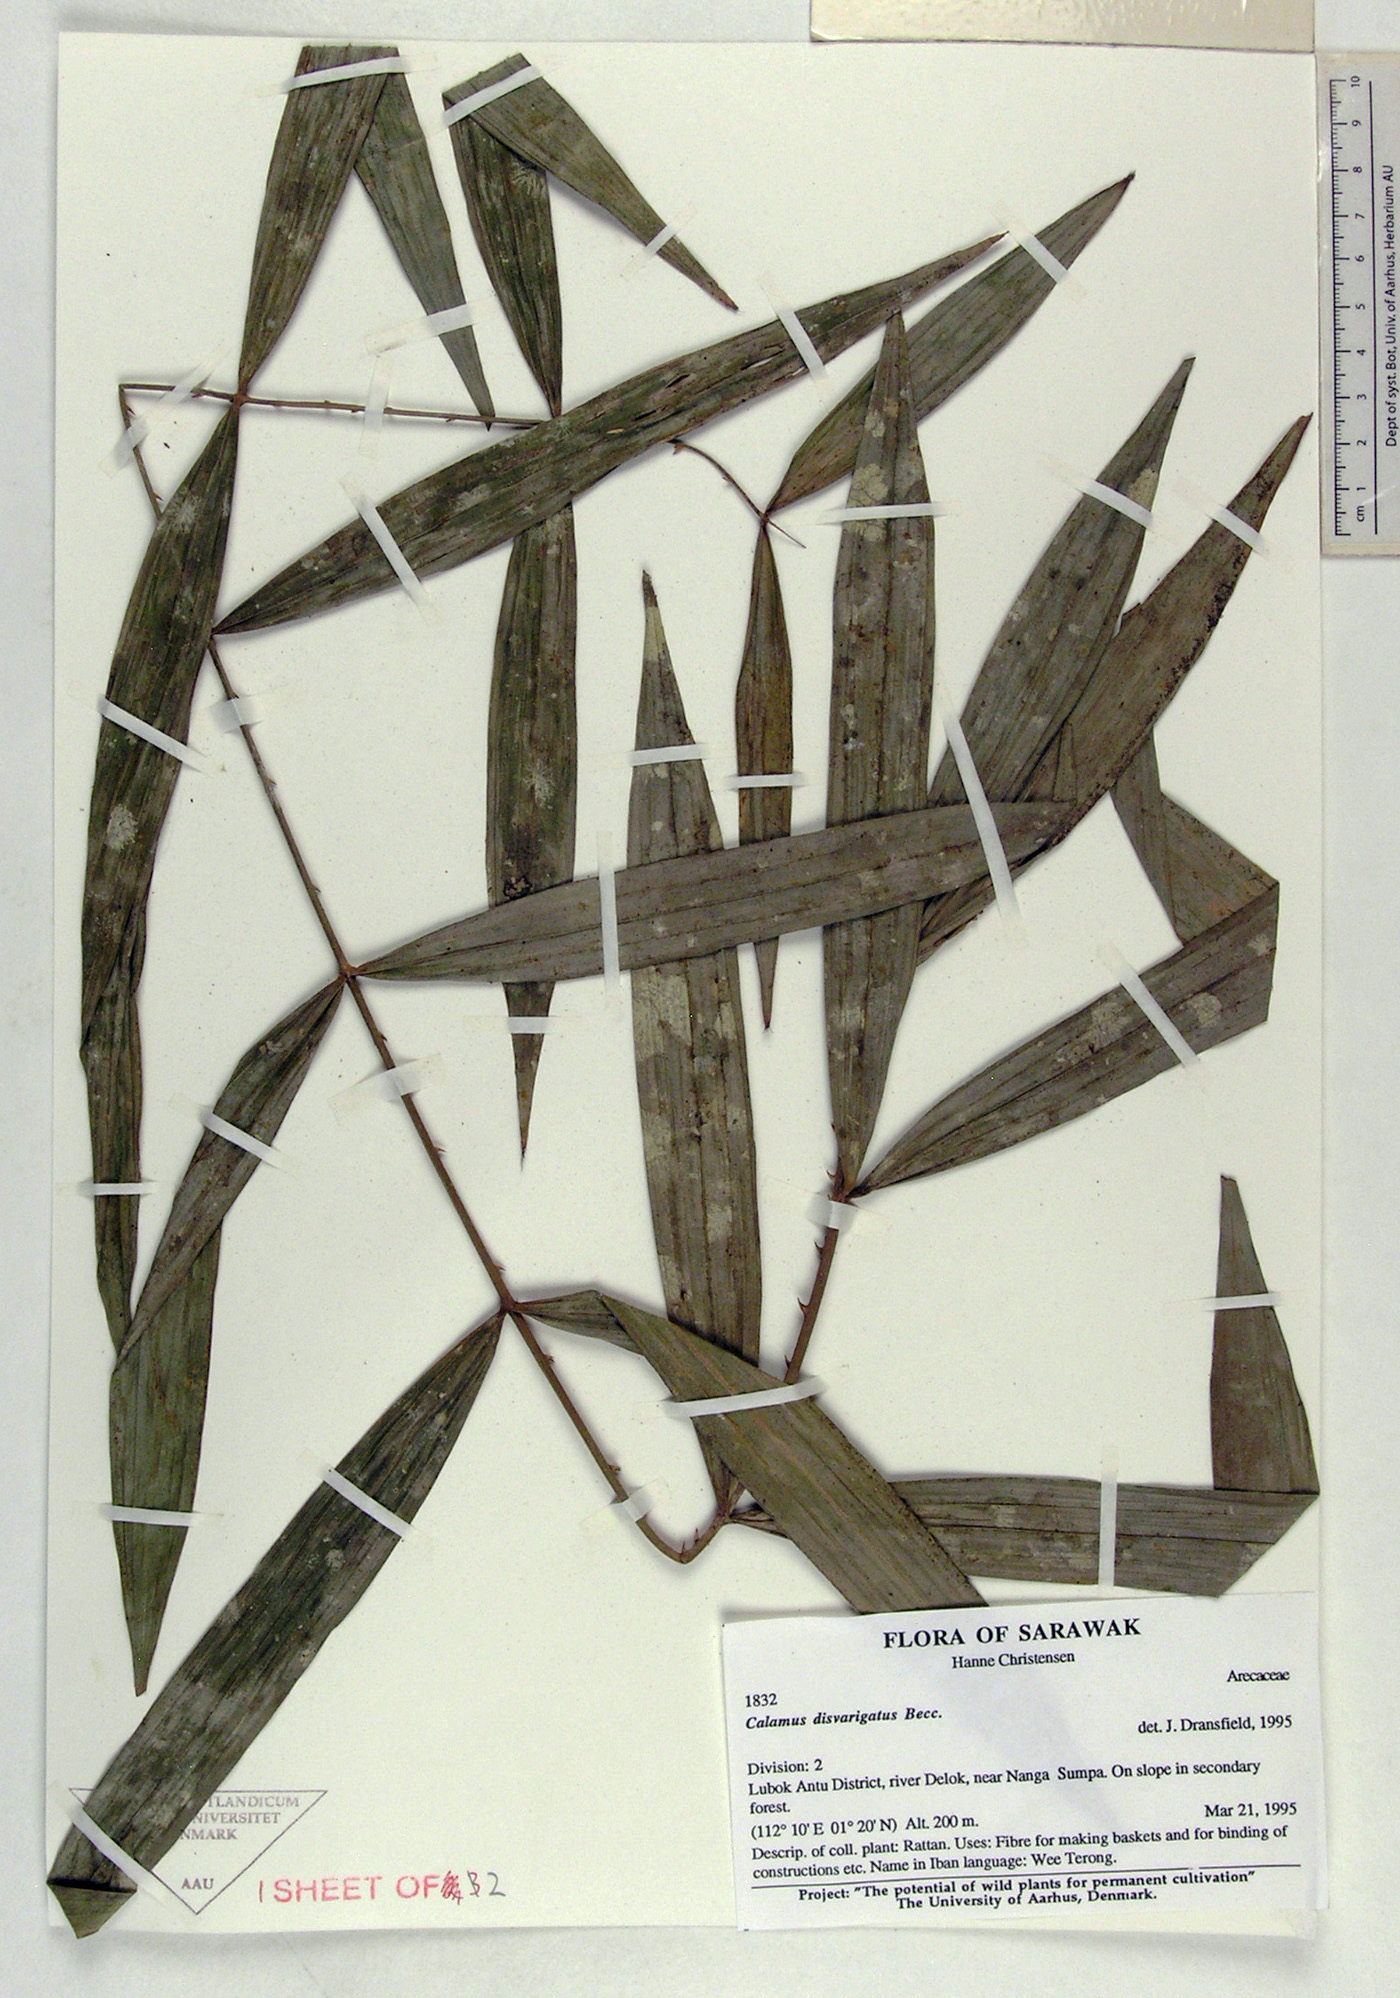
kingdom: Plantae
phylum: Tracheophyta
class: Liliopsida
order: Arecales
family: Arecaceae
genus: Calamus
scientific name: Calamus
